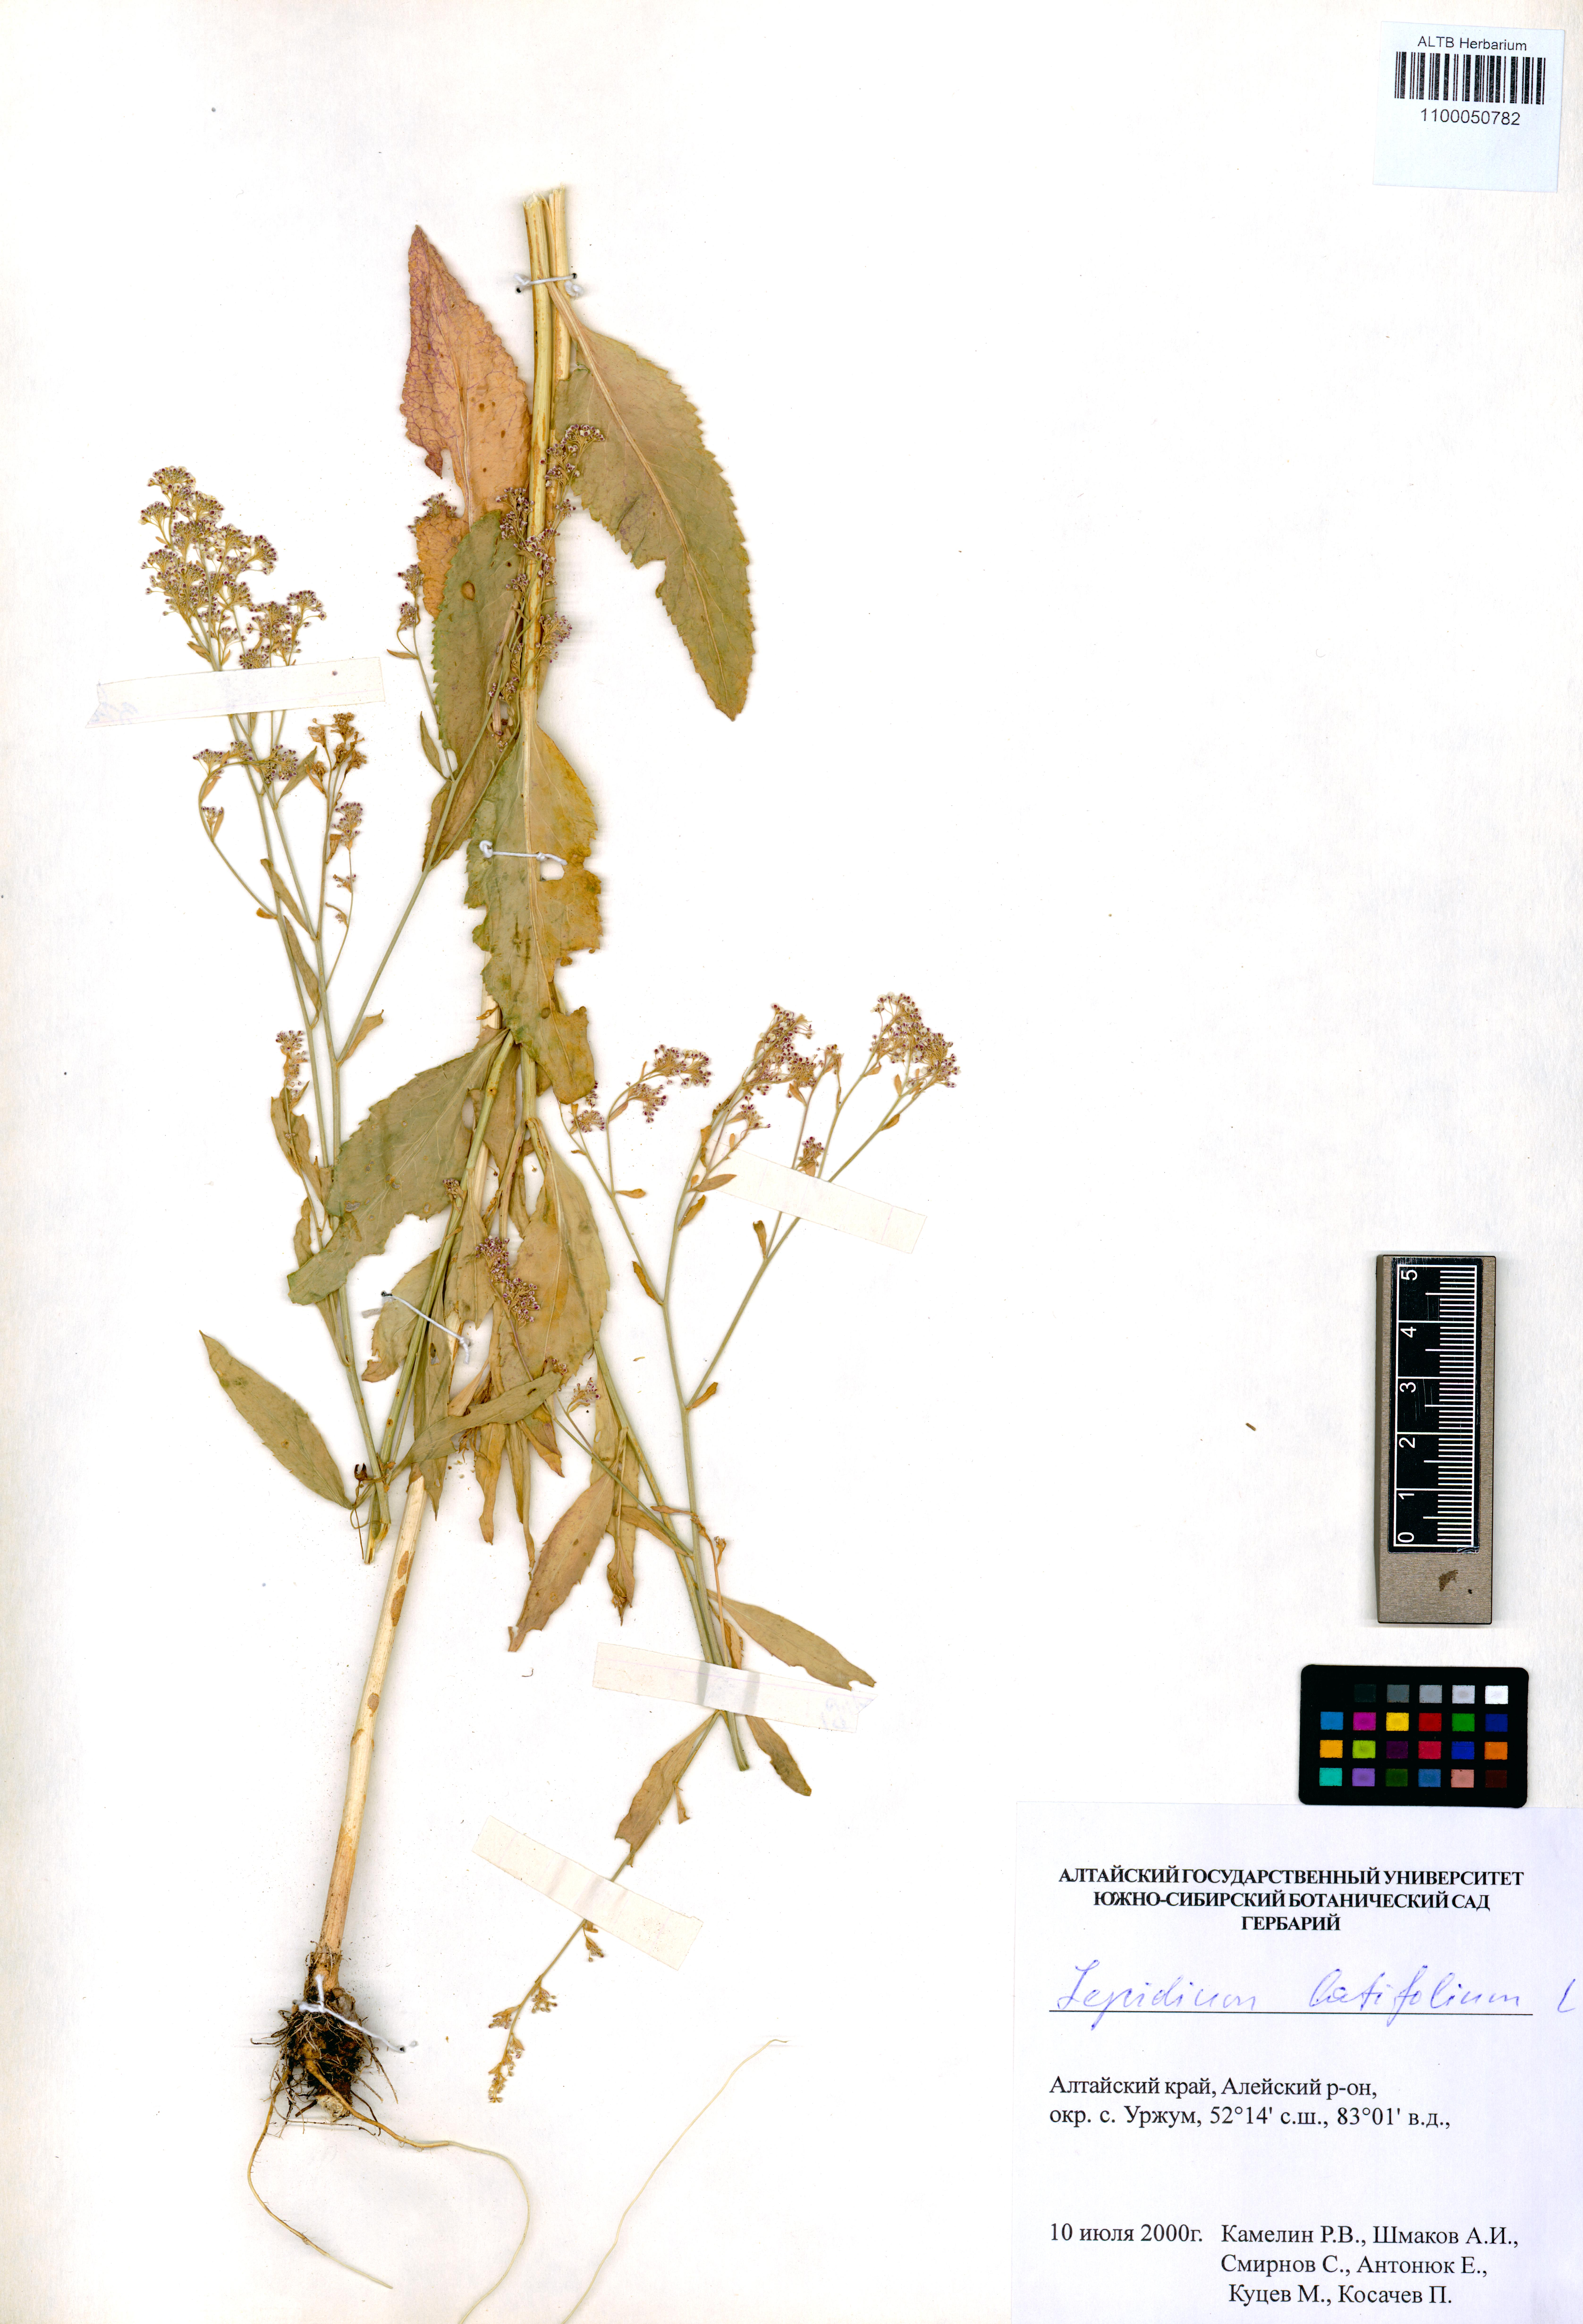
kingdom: Plantae
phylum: Tracheophyta
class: Magnoliopsida
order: Brassicales
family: Brassicaceae
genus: Lepidium
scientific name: Lepidium latifolium
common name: Dittander
